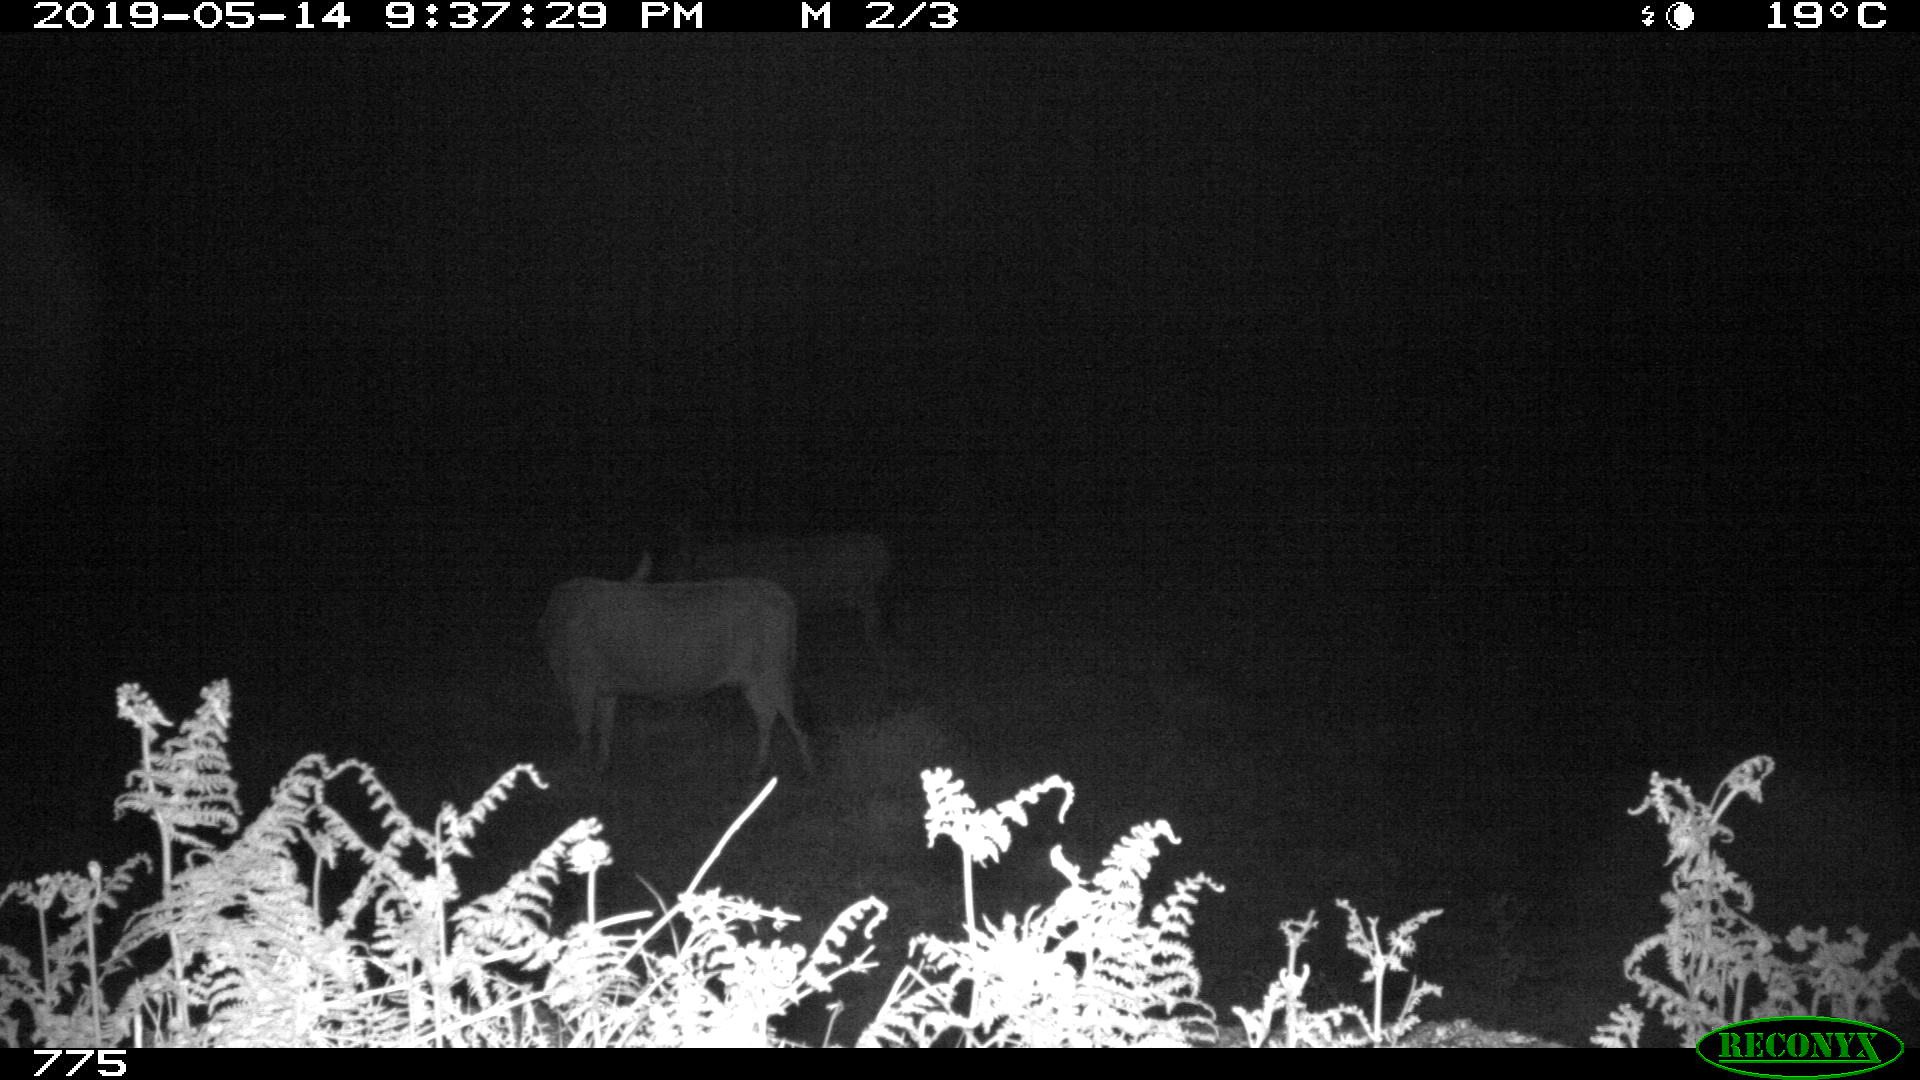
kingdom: Animalia
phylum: Chordata
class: Mammalia
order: Artiodactyla
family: Bovidae
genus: Bos
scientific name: Bos taurus
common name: Domesticated cattle
